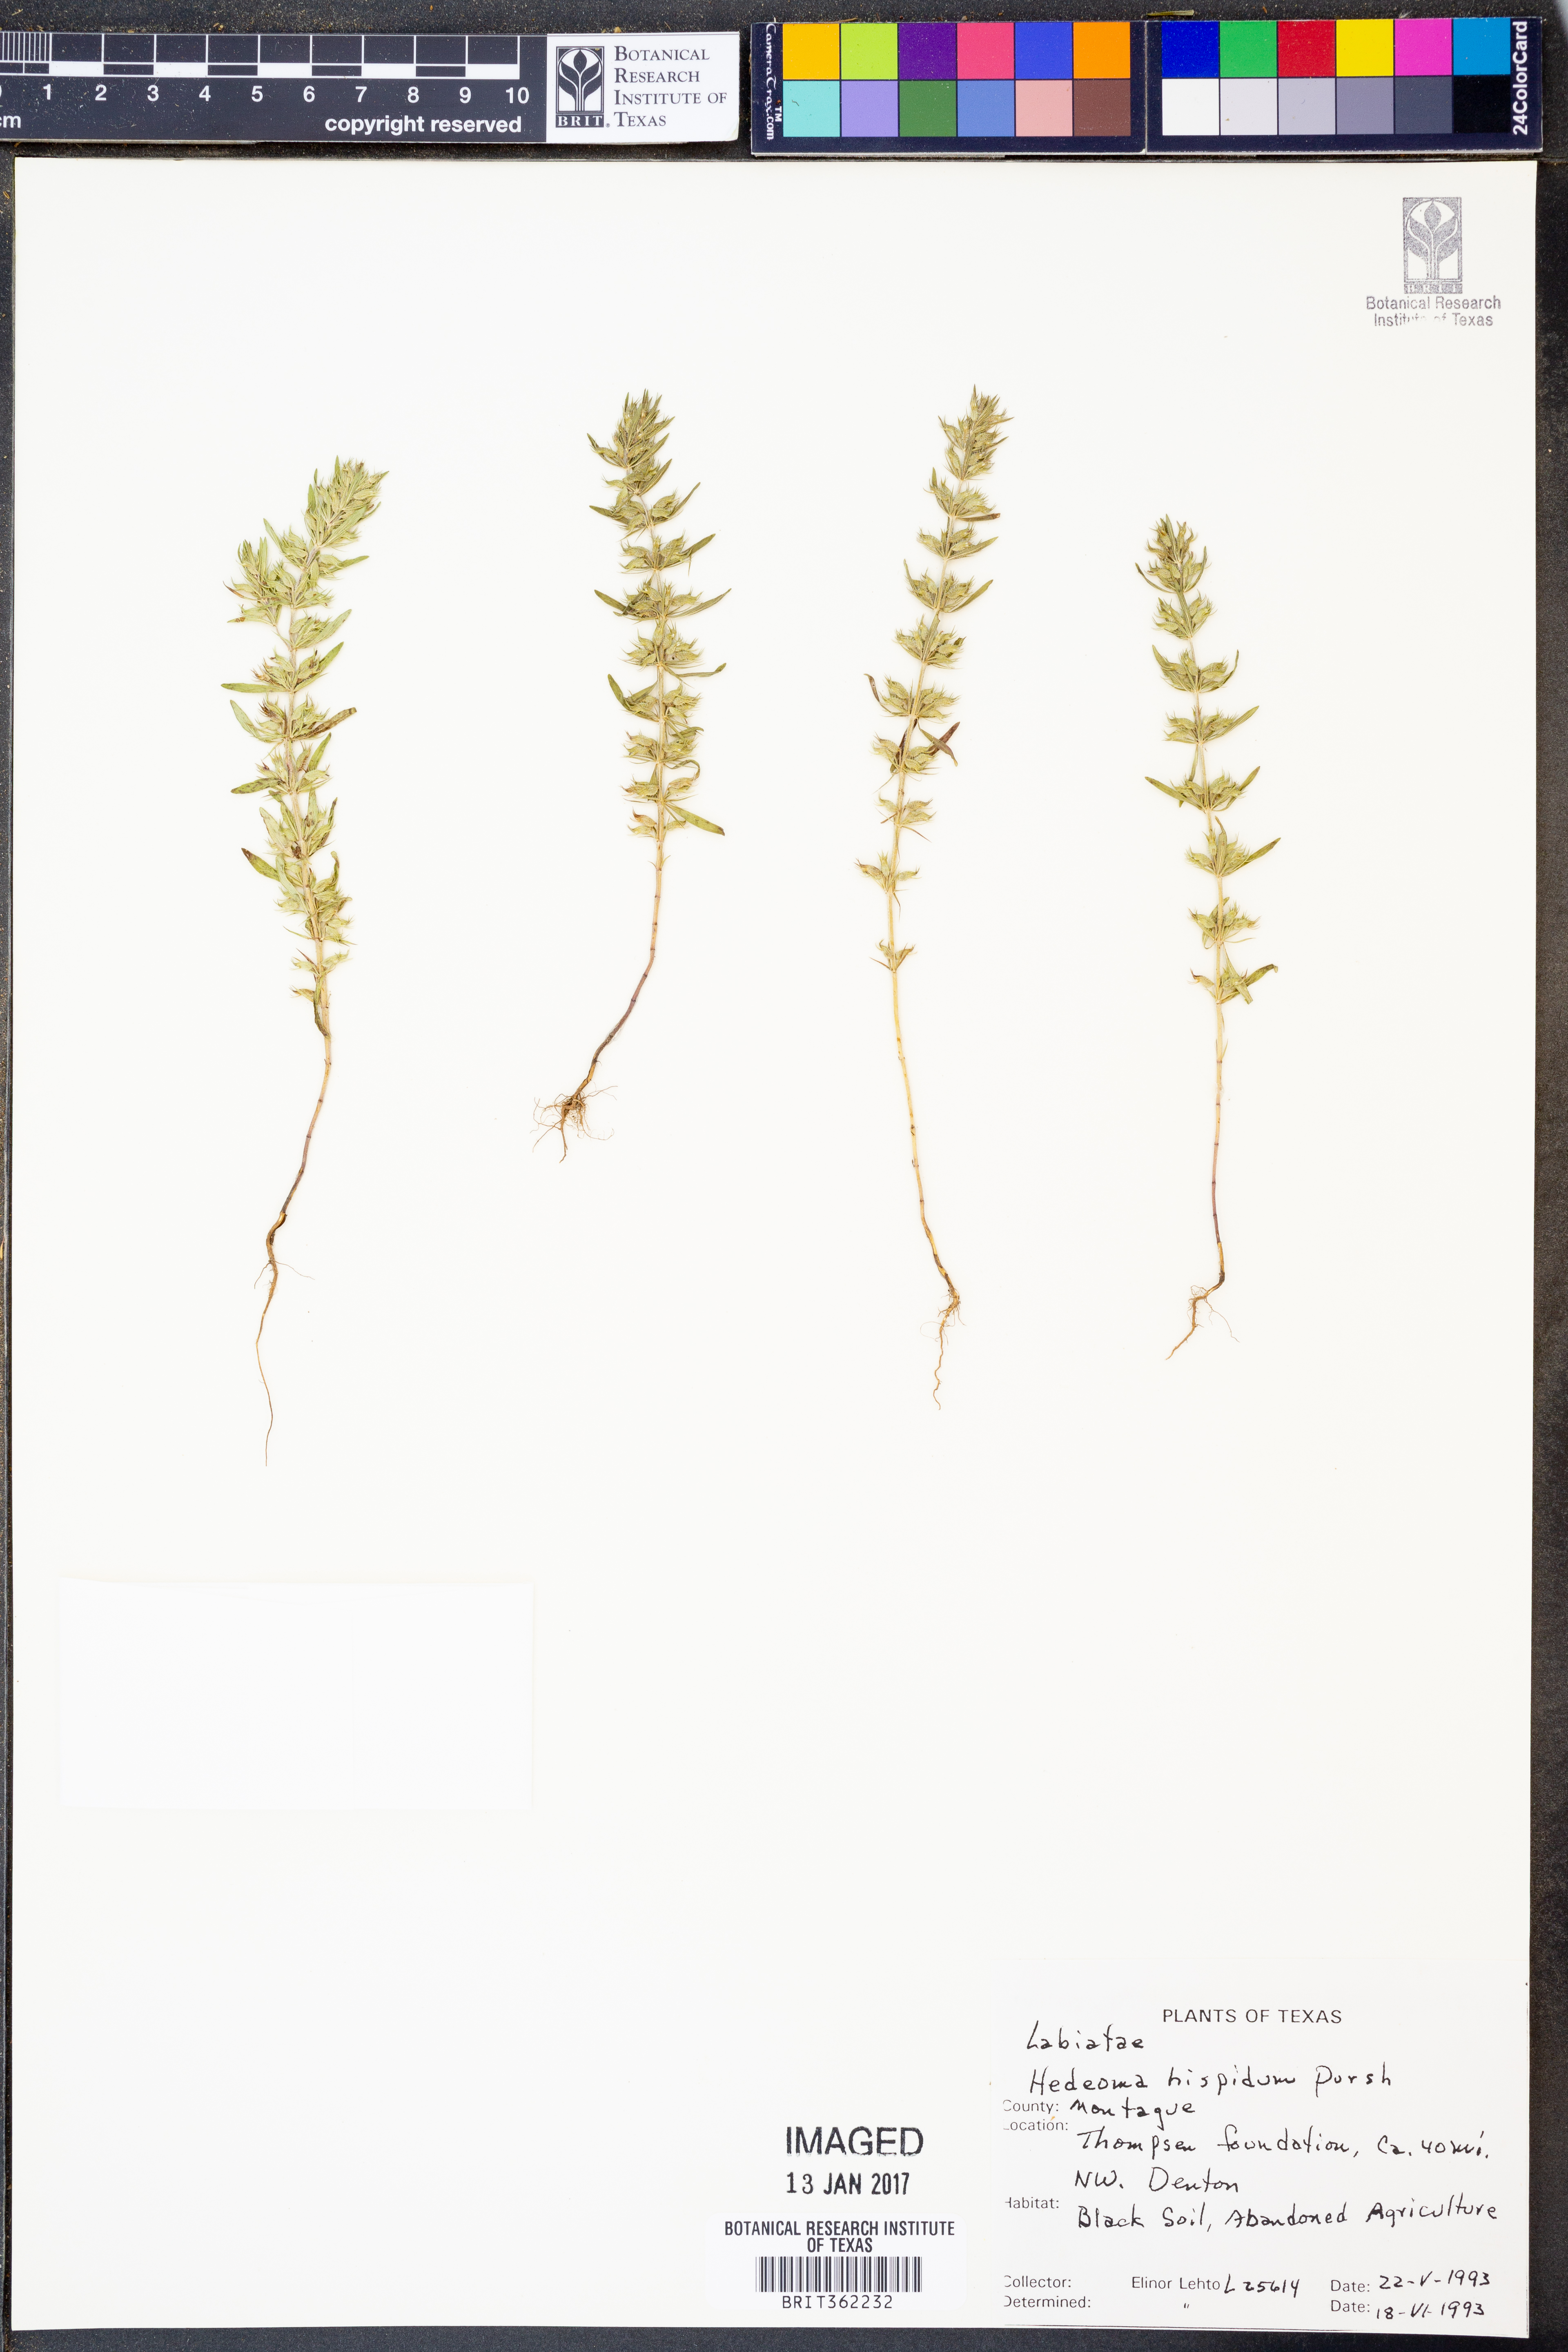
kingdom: Plantae
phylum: Tracheophyta
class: Magnoliopsida
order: Lamiales
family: Lamiaceae
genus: Hedeoma
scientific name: Hedeoma hispida
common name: Mock pennyroyal
